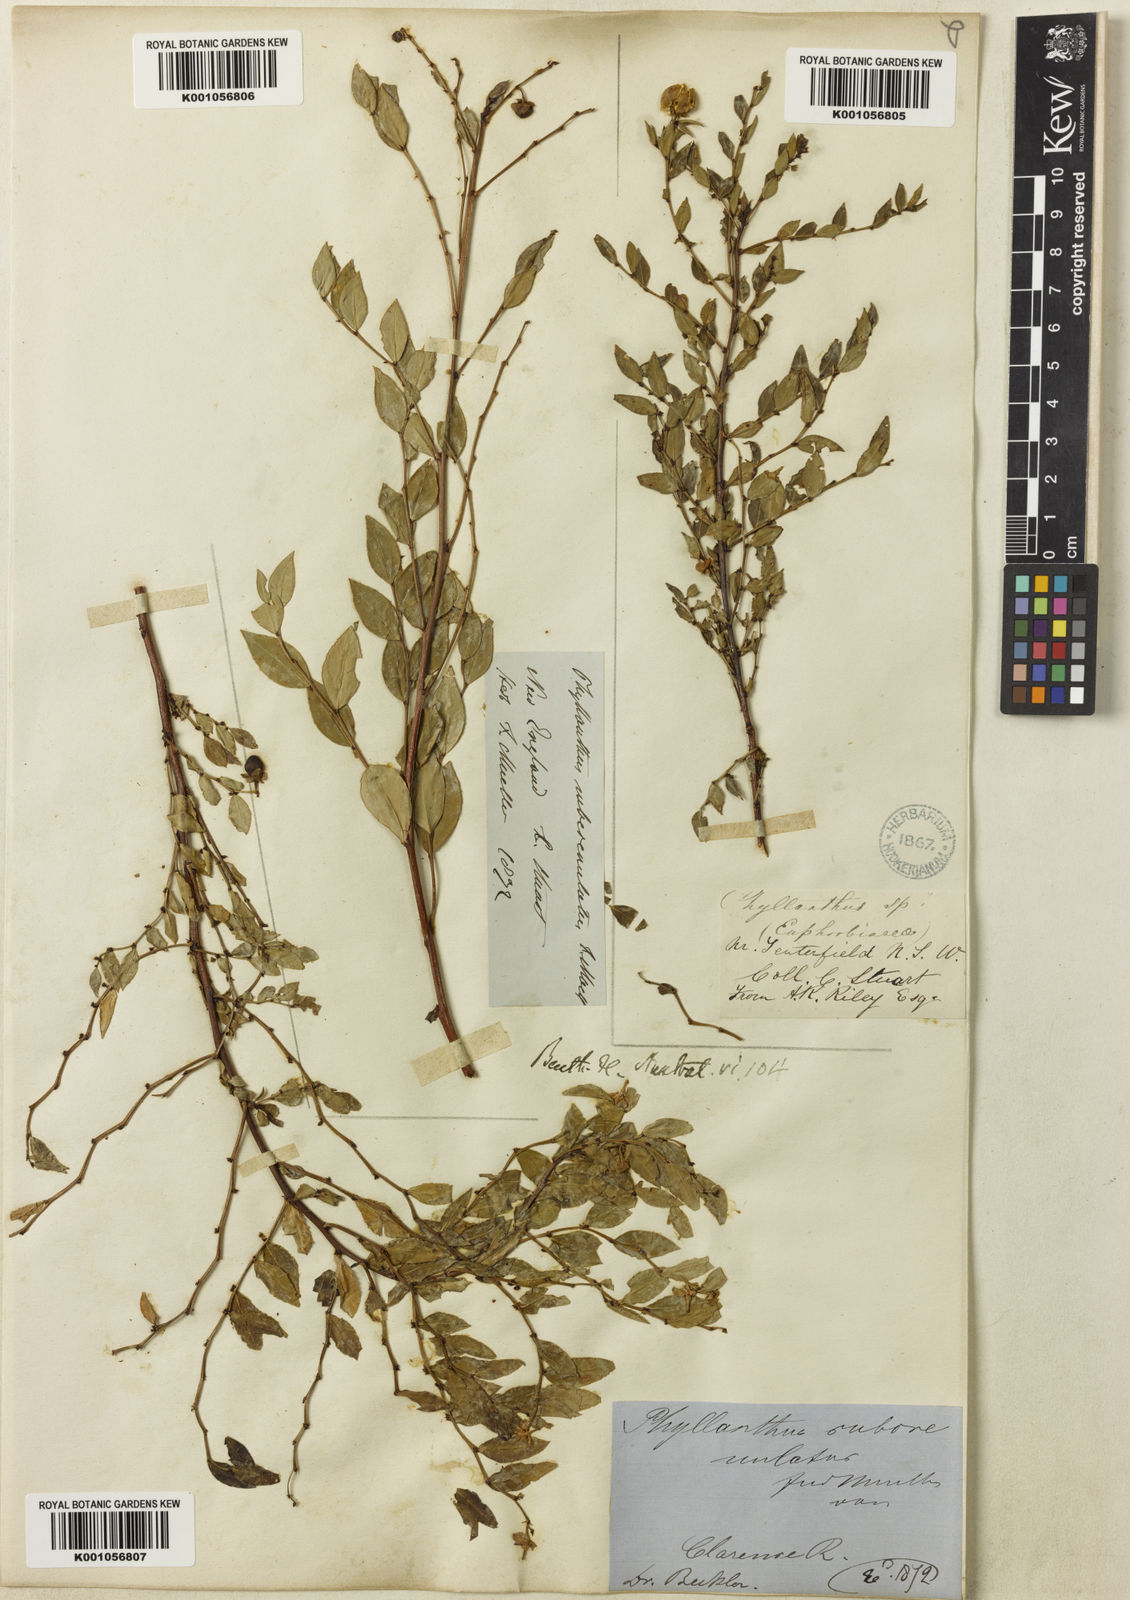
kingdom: Plantae
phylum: Tracheophyta
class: Magnoliopsida
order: Malpighiales
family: Phyllanthaceae
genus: Phyllanthus
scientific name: Phyllanthus subcrenulatus
